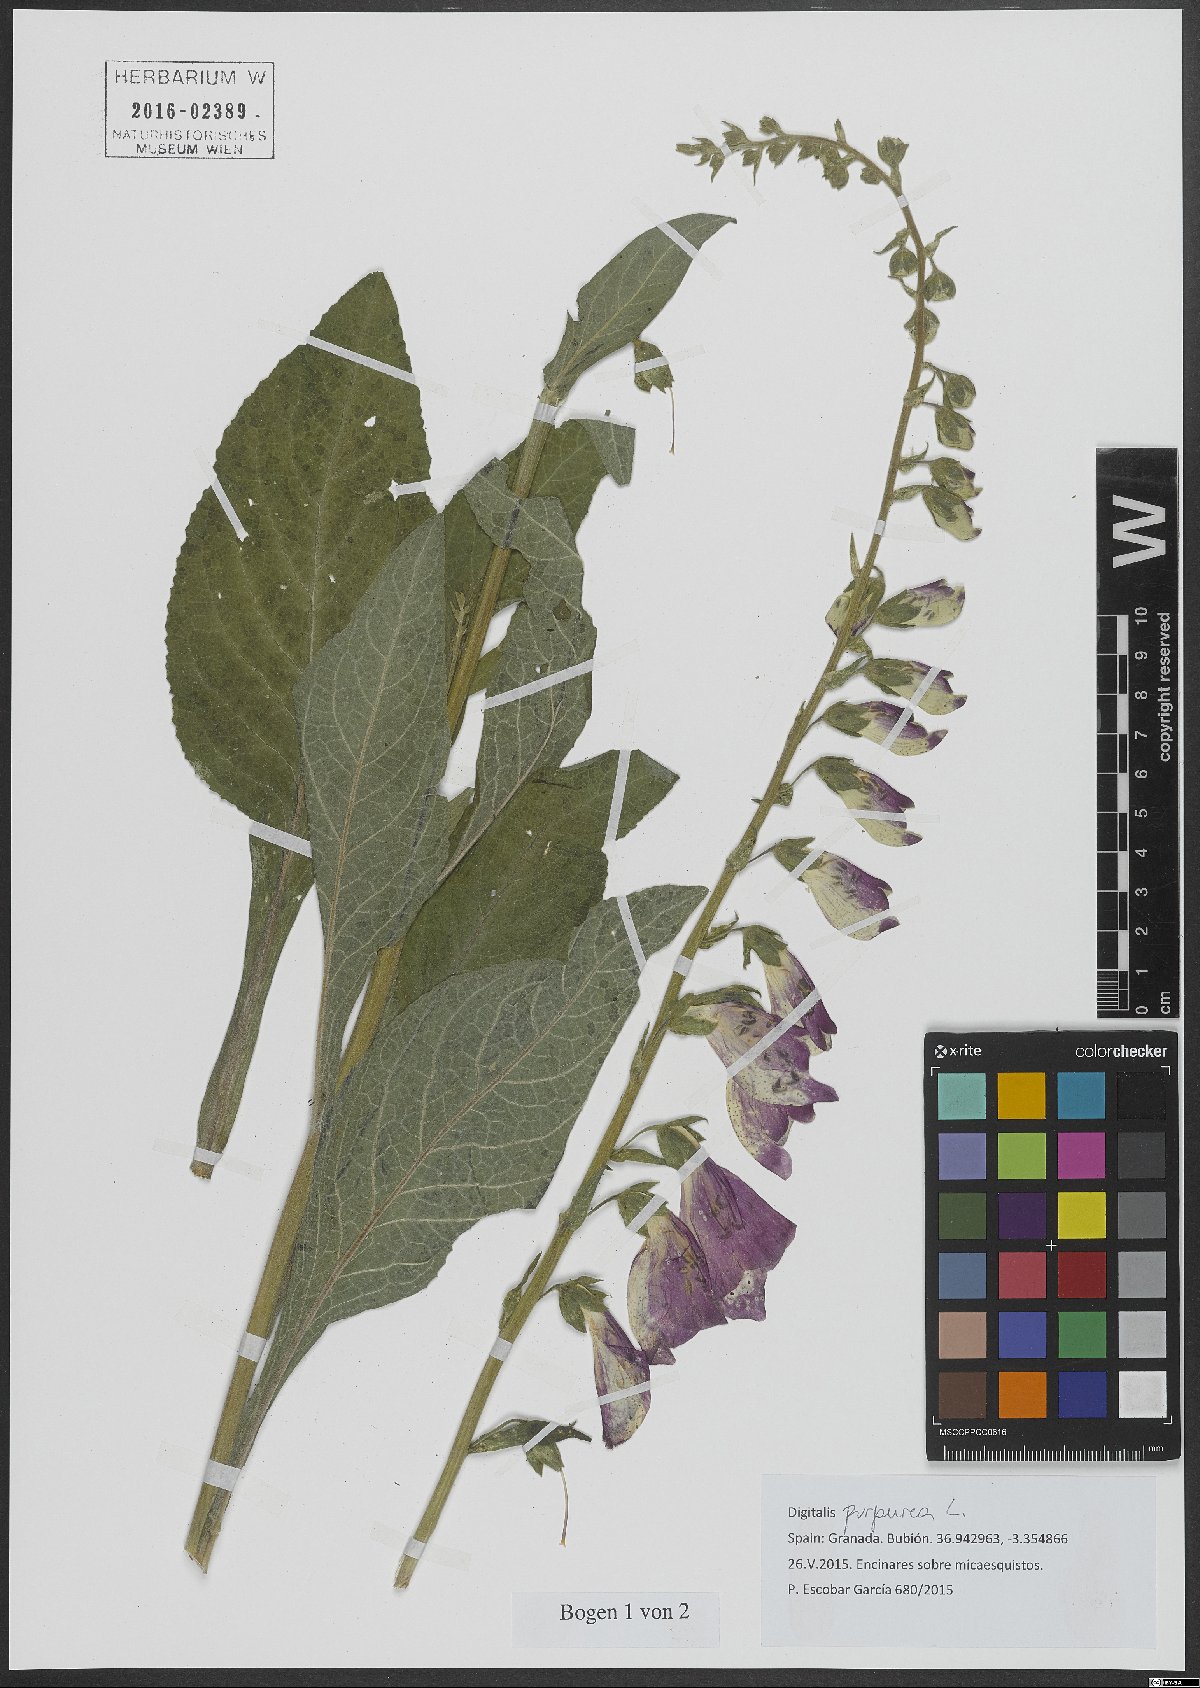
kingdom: Plantae
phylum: Tracheophyta
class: Magnoliopsida
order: Lamiales
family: Plantaginaceae
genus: Digitalis
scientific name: Digitalis purpurea
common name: Foxglove
